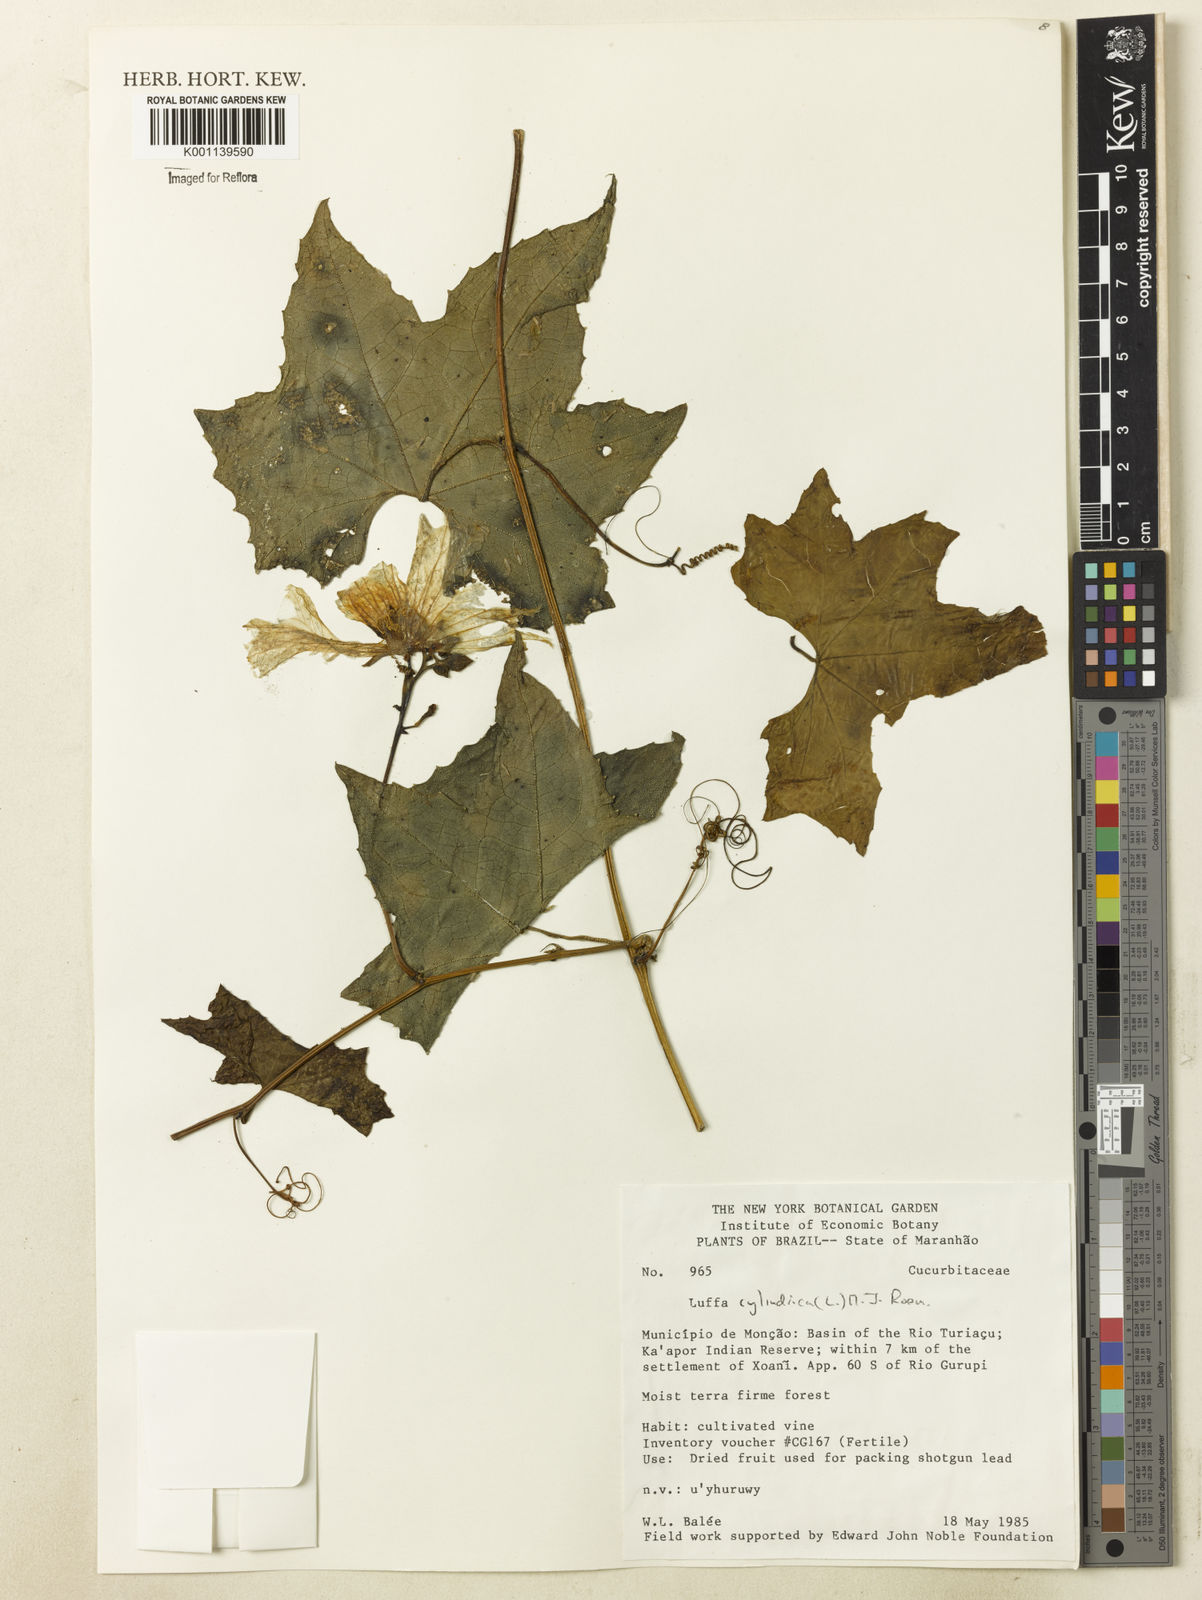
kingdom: Plantae
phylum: Tracheophyta
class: Magnoliopsida
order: Cucurbitales
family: Cucurbitaceae
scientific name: Cucurbitaceae
